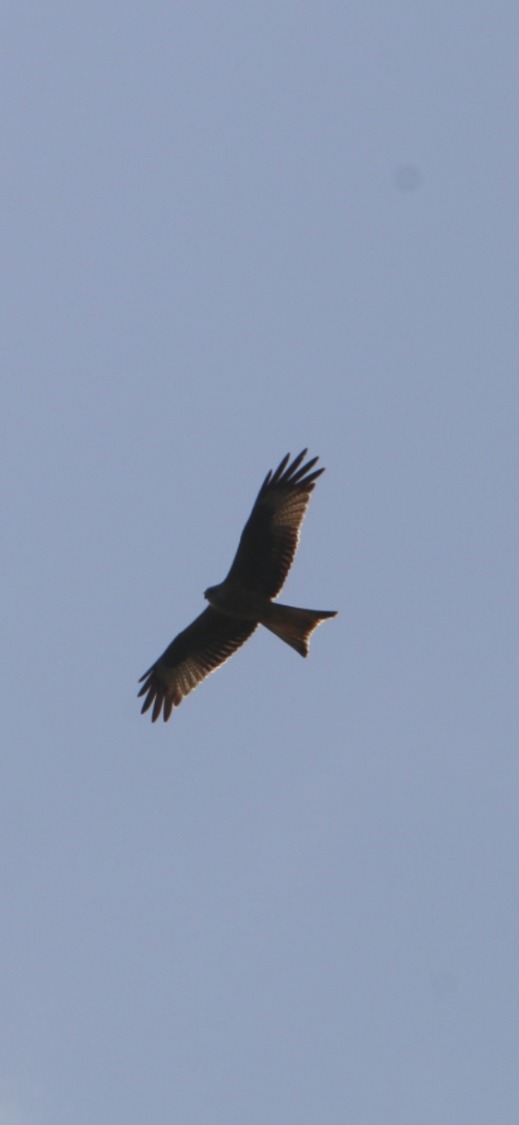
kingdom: Animalia
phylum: Chordata
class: Aves
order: Accipitriformes
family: Accipitridae
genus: Milvus
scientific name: Milvus milvus
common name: Rød glente
